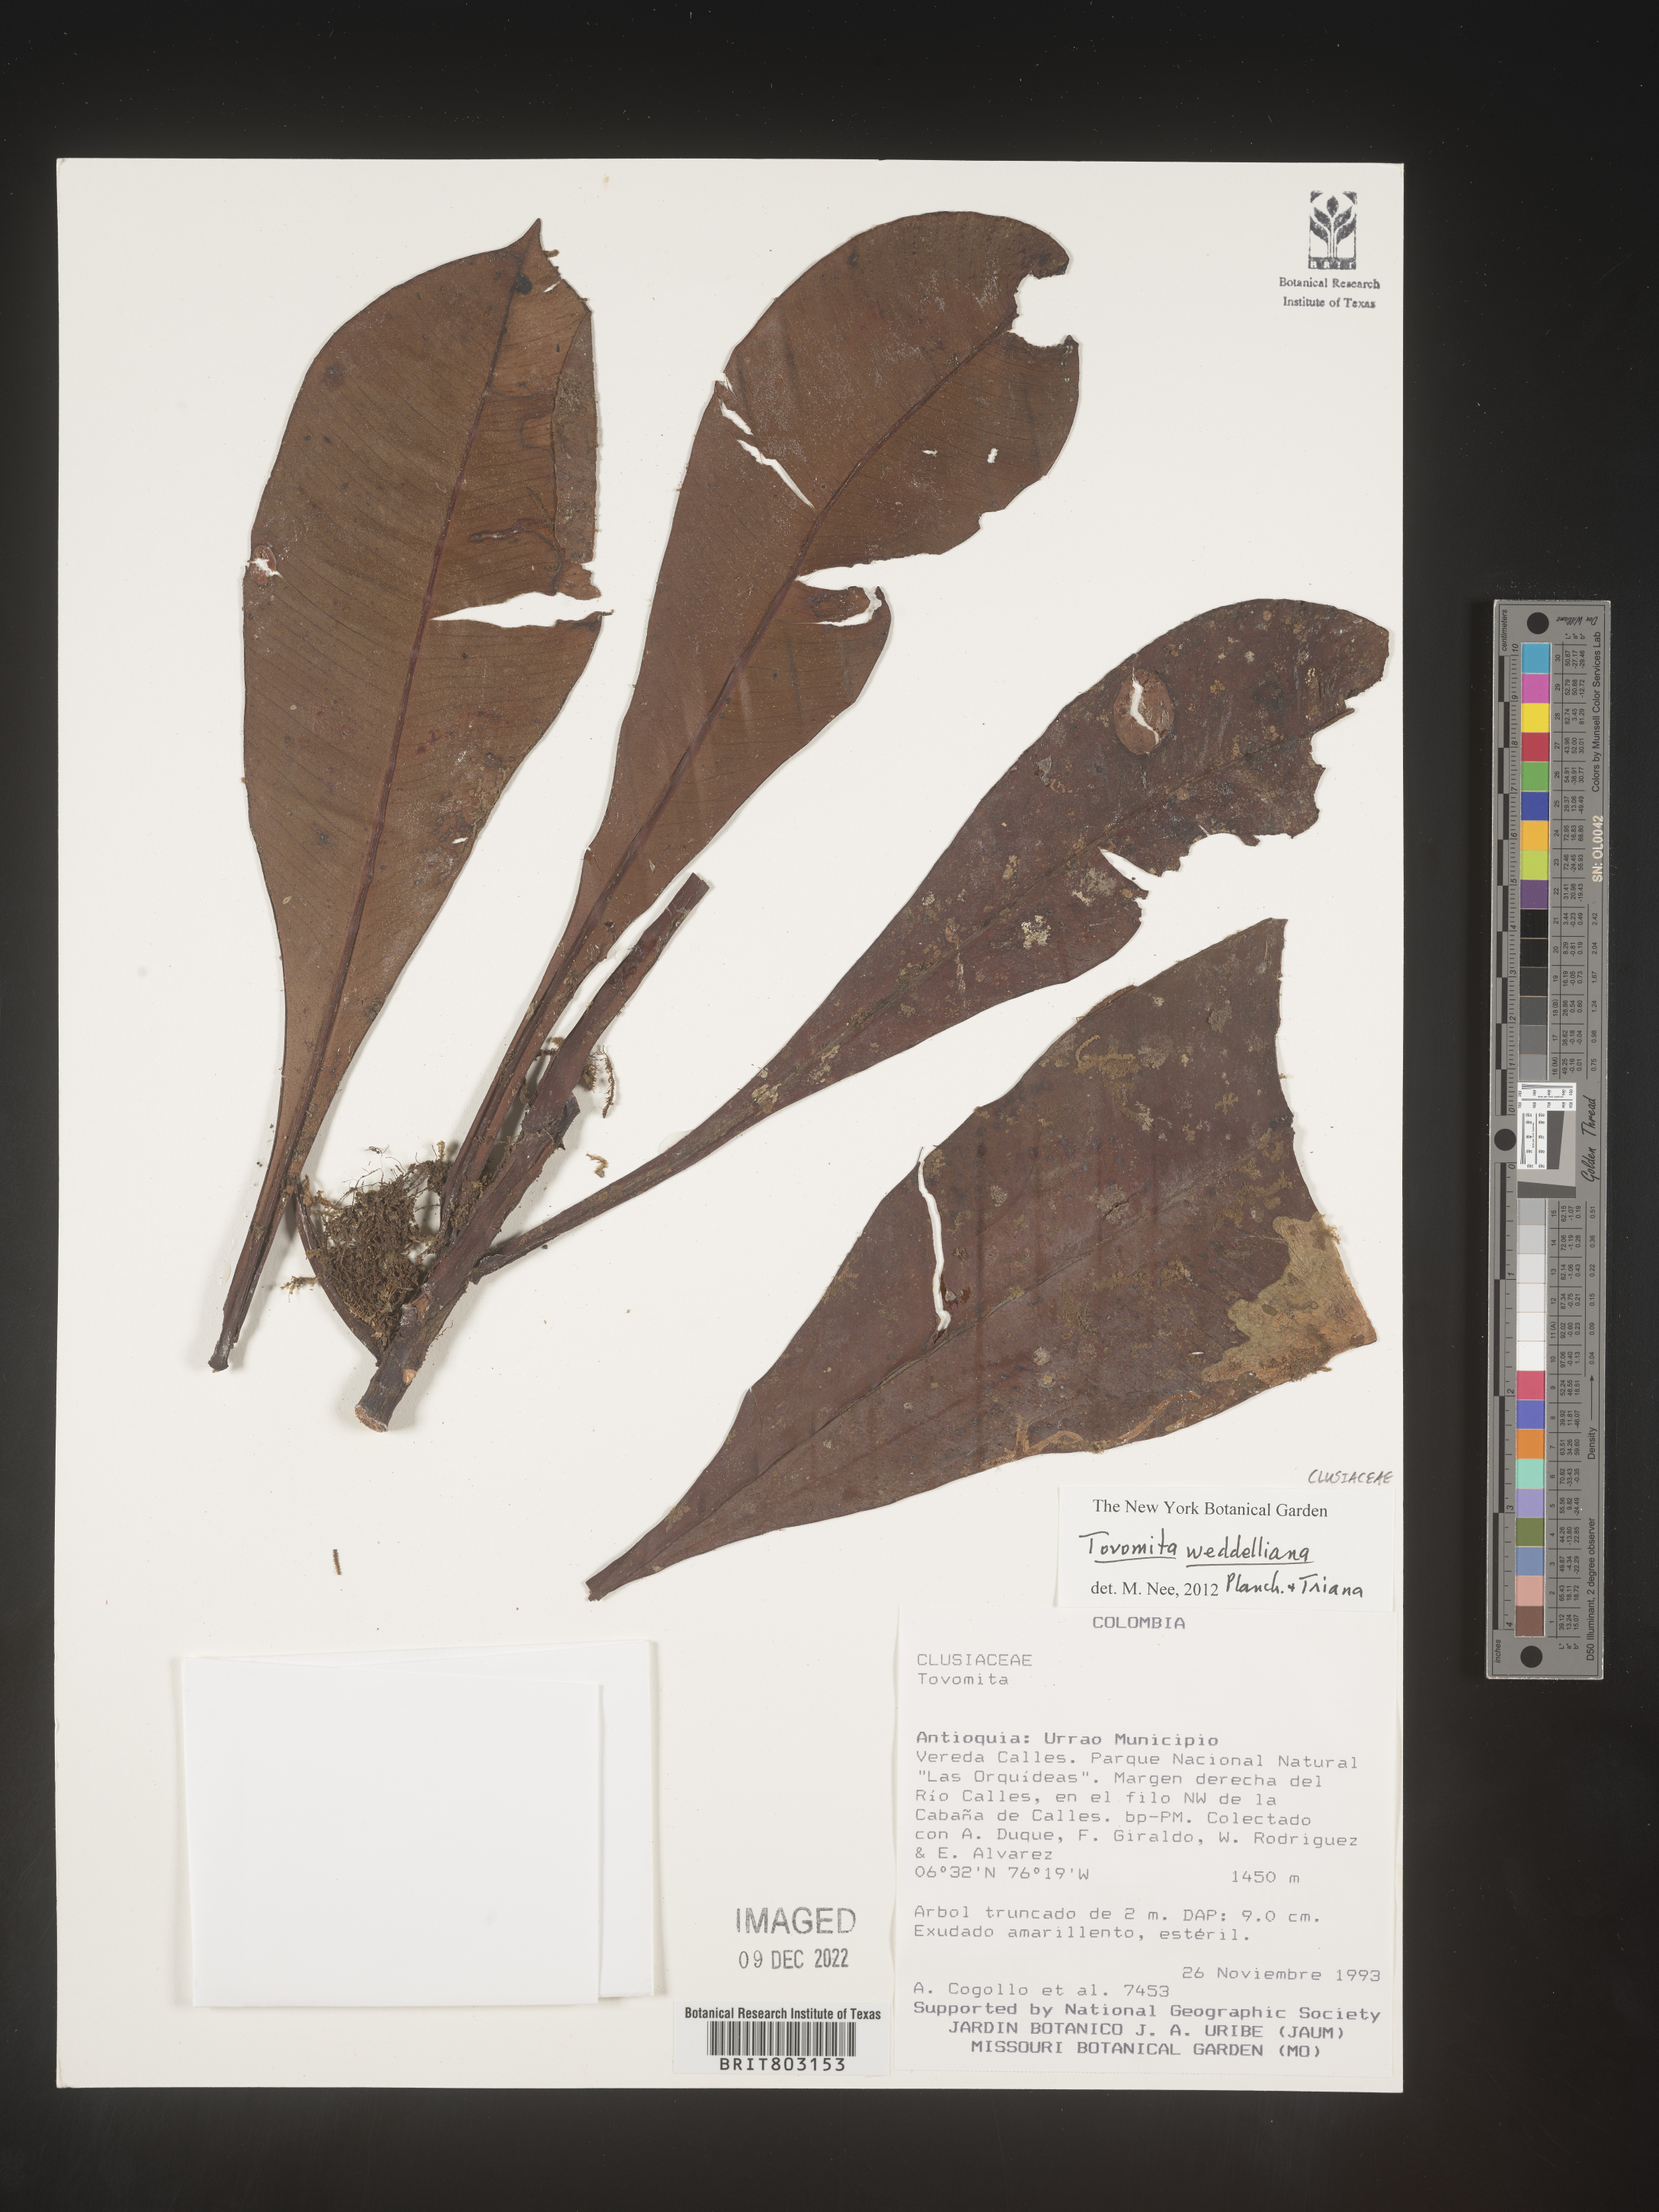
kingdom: Plantae
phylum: Tracheophyta
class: Magnoliopsida
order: Malpighiales
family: Clusiaceae
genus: Arawakia
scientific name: Arawakia weddelliana
